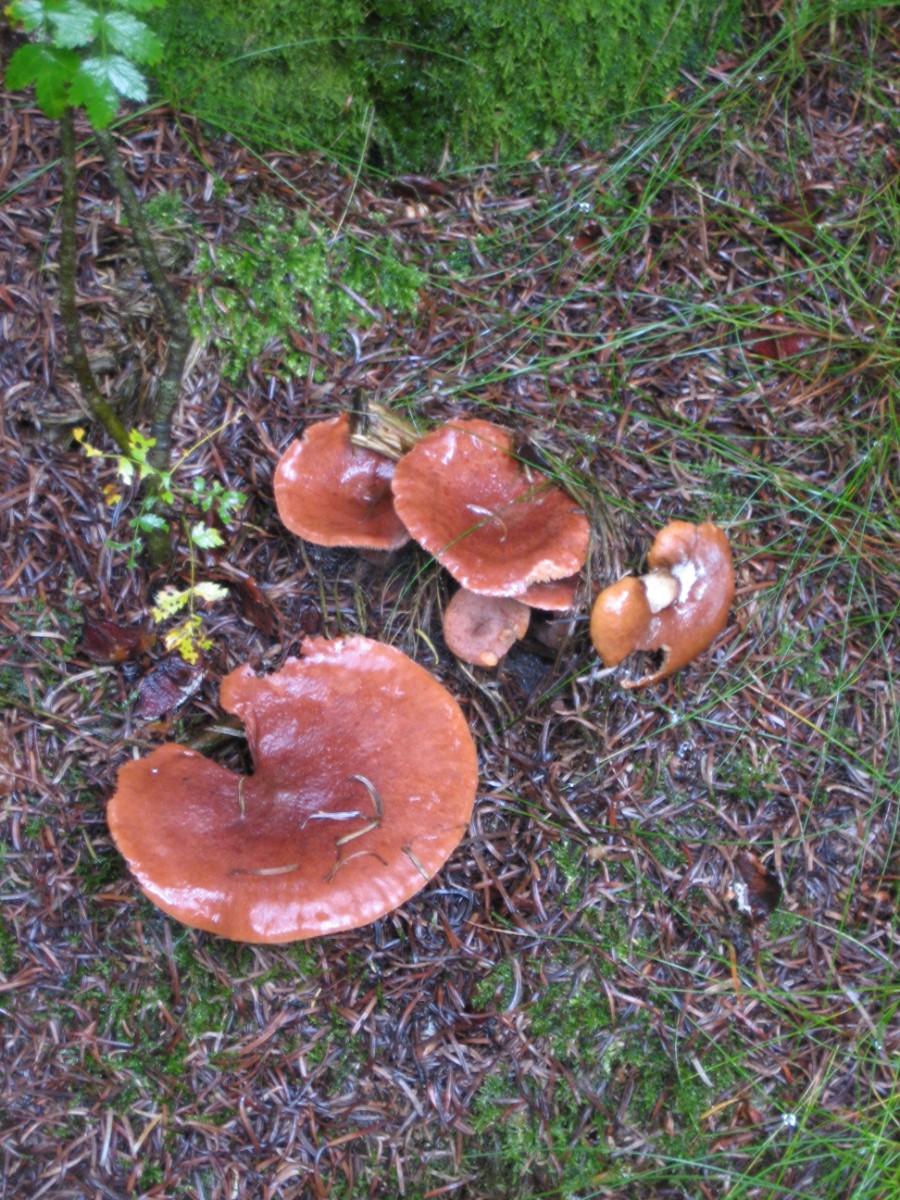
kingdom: Fungi
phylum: Basidiomycota
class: Agaricomycetes
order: Russulales
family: Russulaceae
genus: Lactarius
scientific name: Lactarius rufus
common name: rødbrun mælkehat
